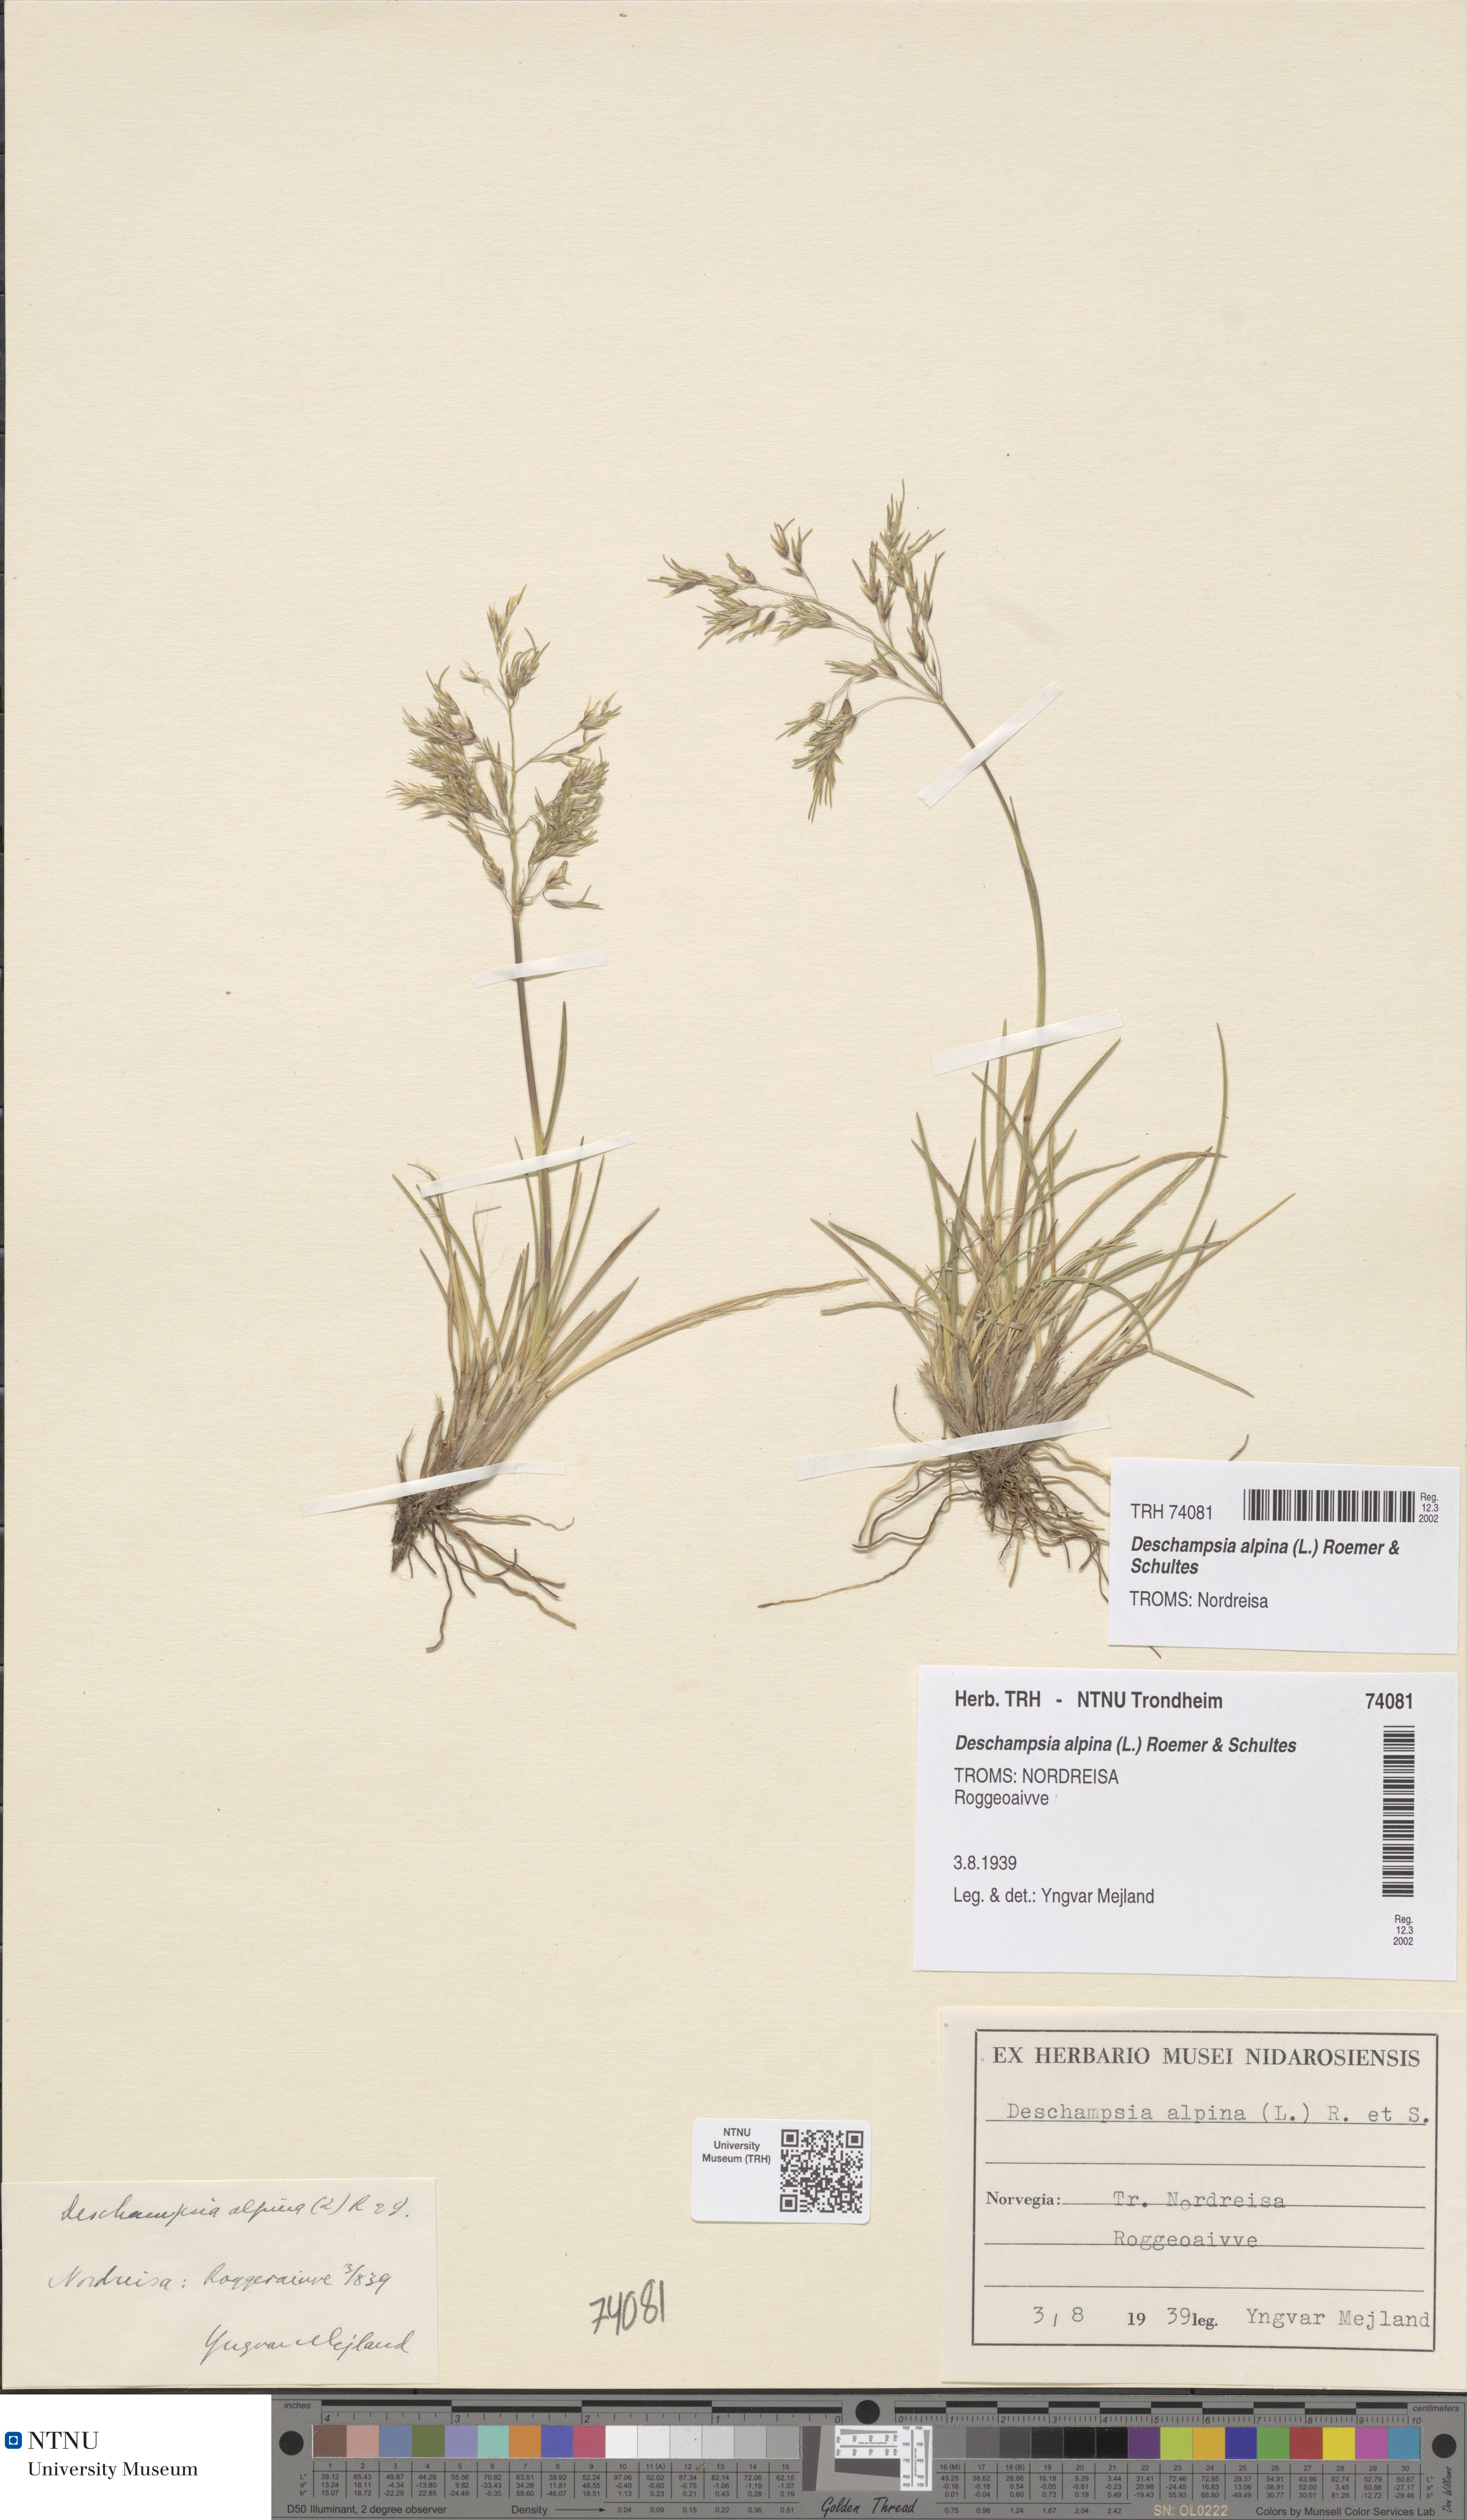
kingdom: Plantae
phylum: Tracheophyta
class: Liliopsida
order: Poales
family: Poaceae
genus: Deschampsia
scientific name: Deschampsia cespitosa
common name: Tufted hair-grass
